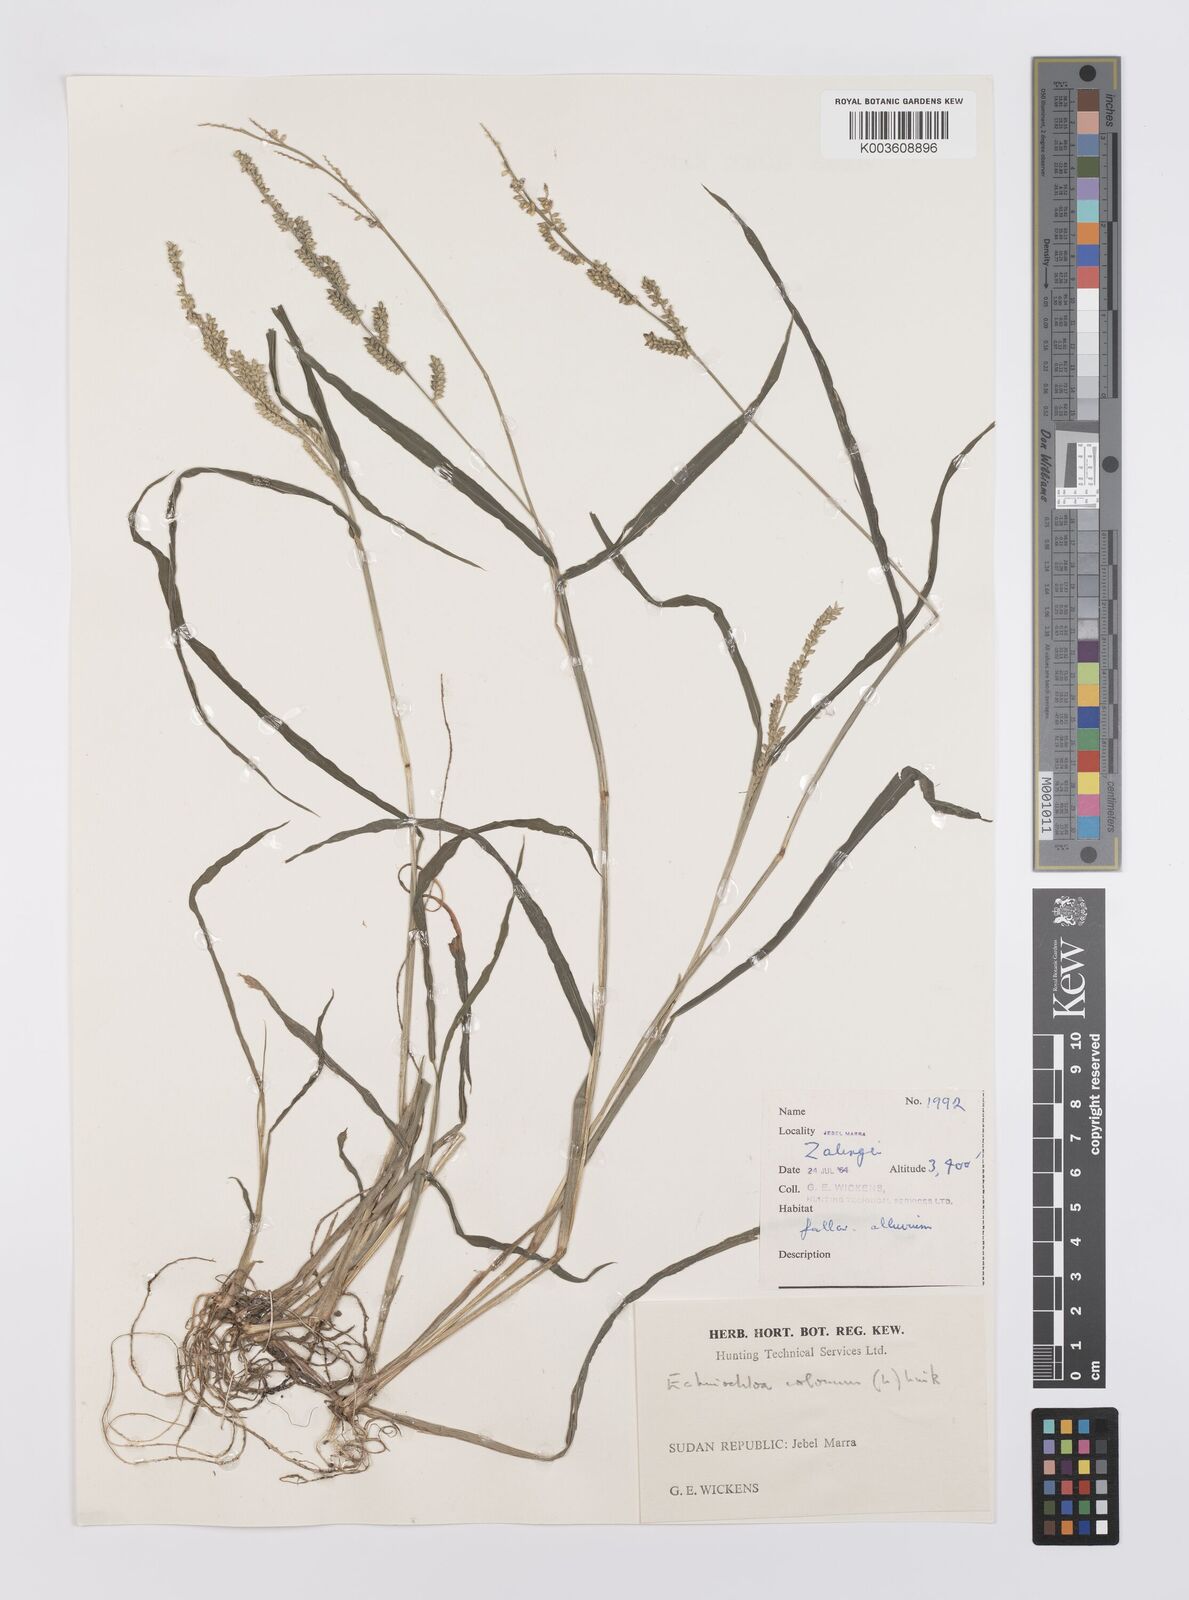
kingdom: Plantae
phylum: Tracheophyta
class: Liliopsida
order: Poales
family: Poaceae
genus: Echinochloa
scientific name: Echinochloa colonum
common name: Jungle rice
